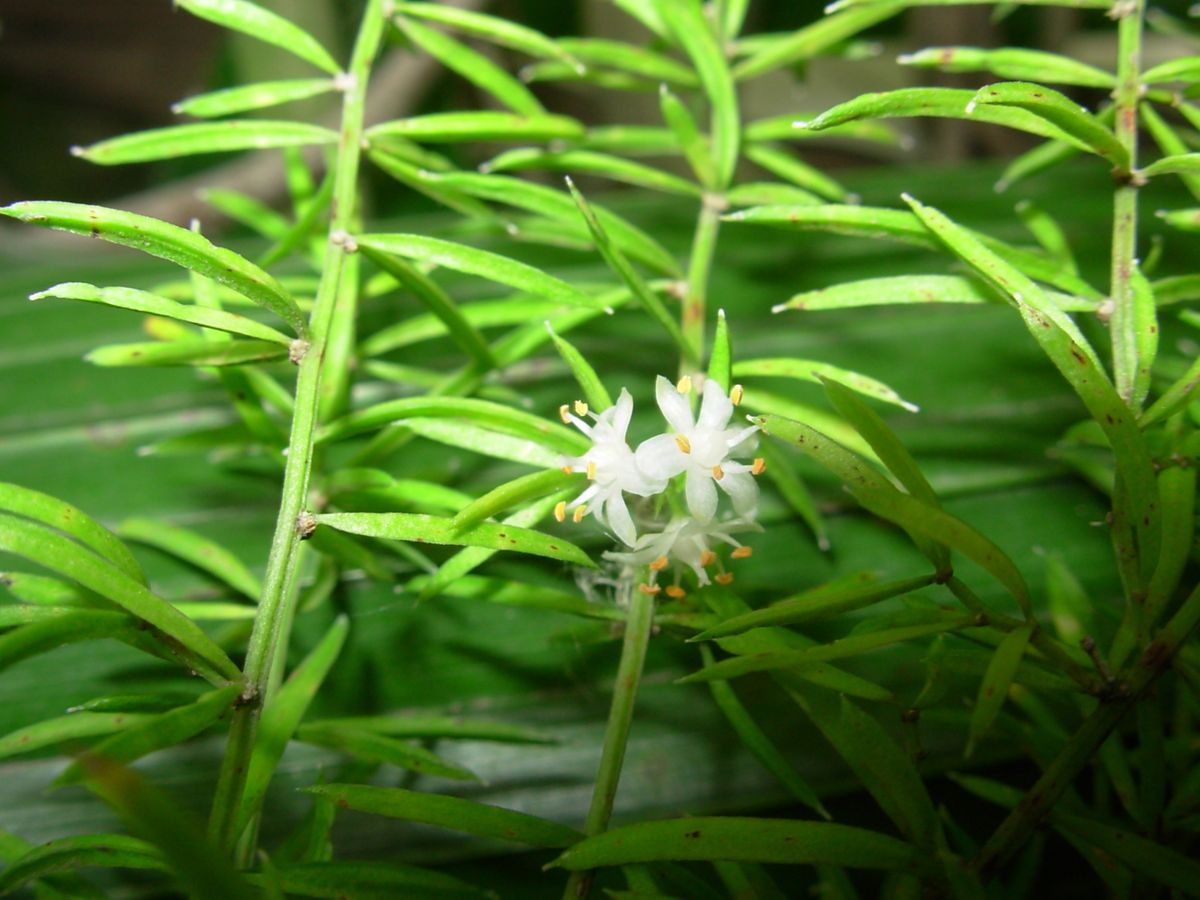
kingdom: Plantae
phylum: Tracheophyta
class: Liliopsida
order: Asparagales
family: Asparagaceae
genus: Asparagus
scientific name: Asparagus densiflorus
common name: Asparagus fern
